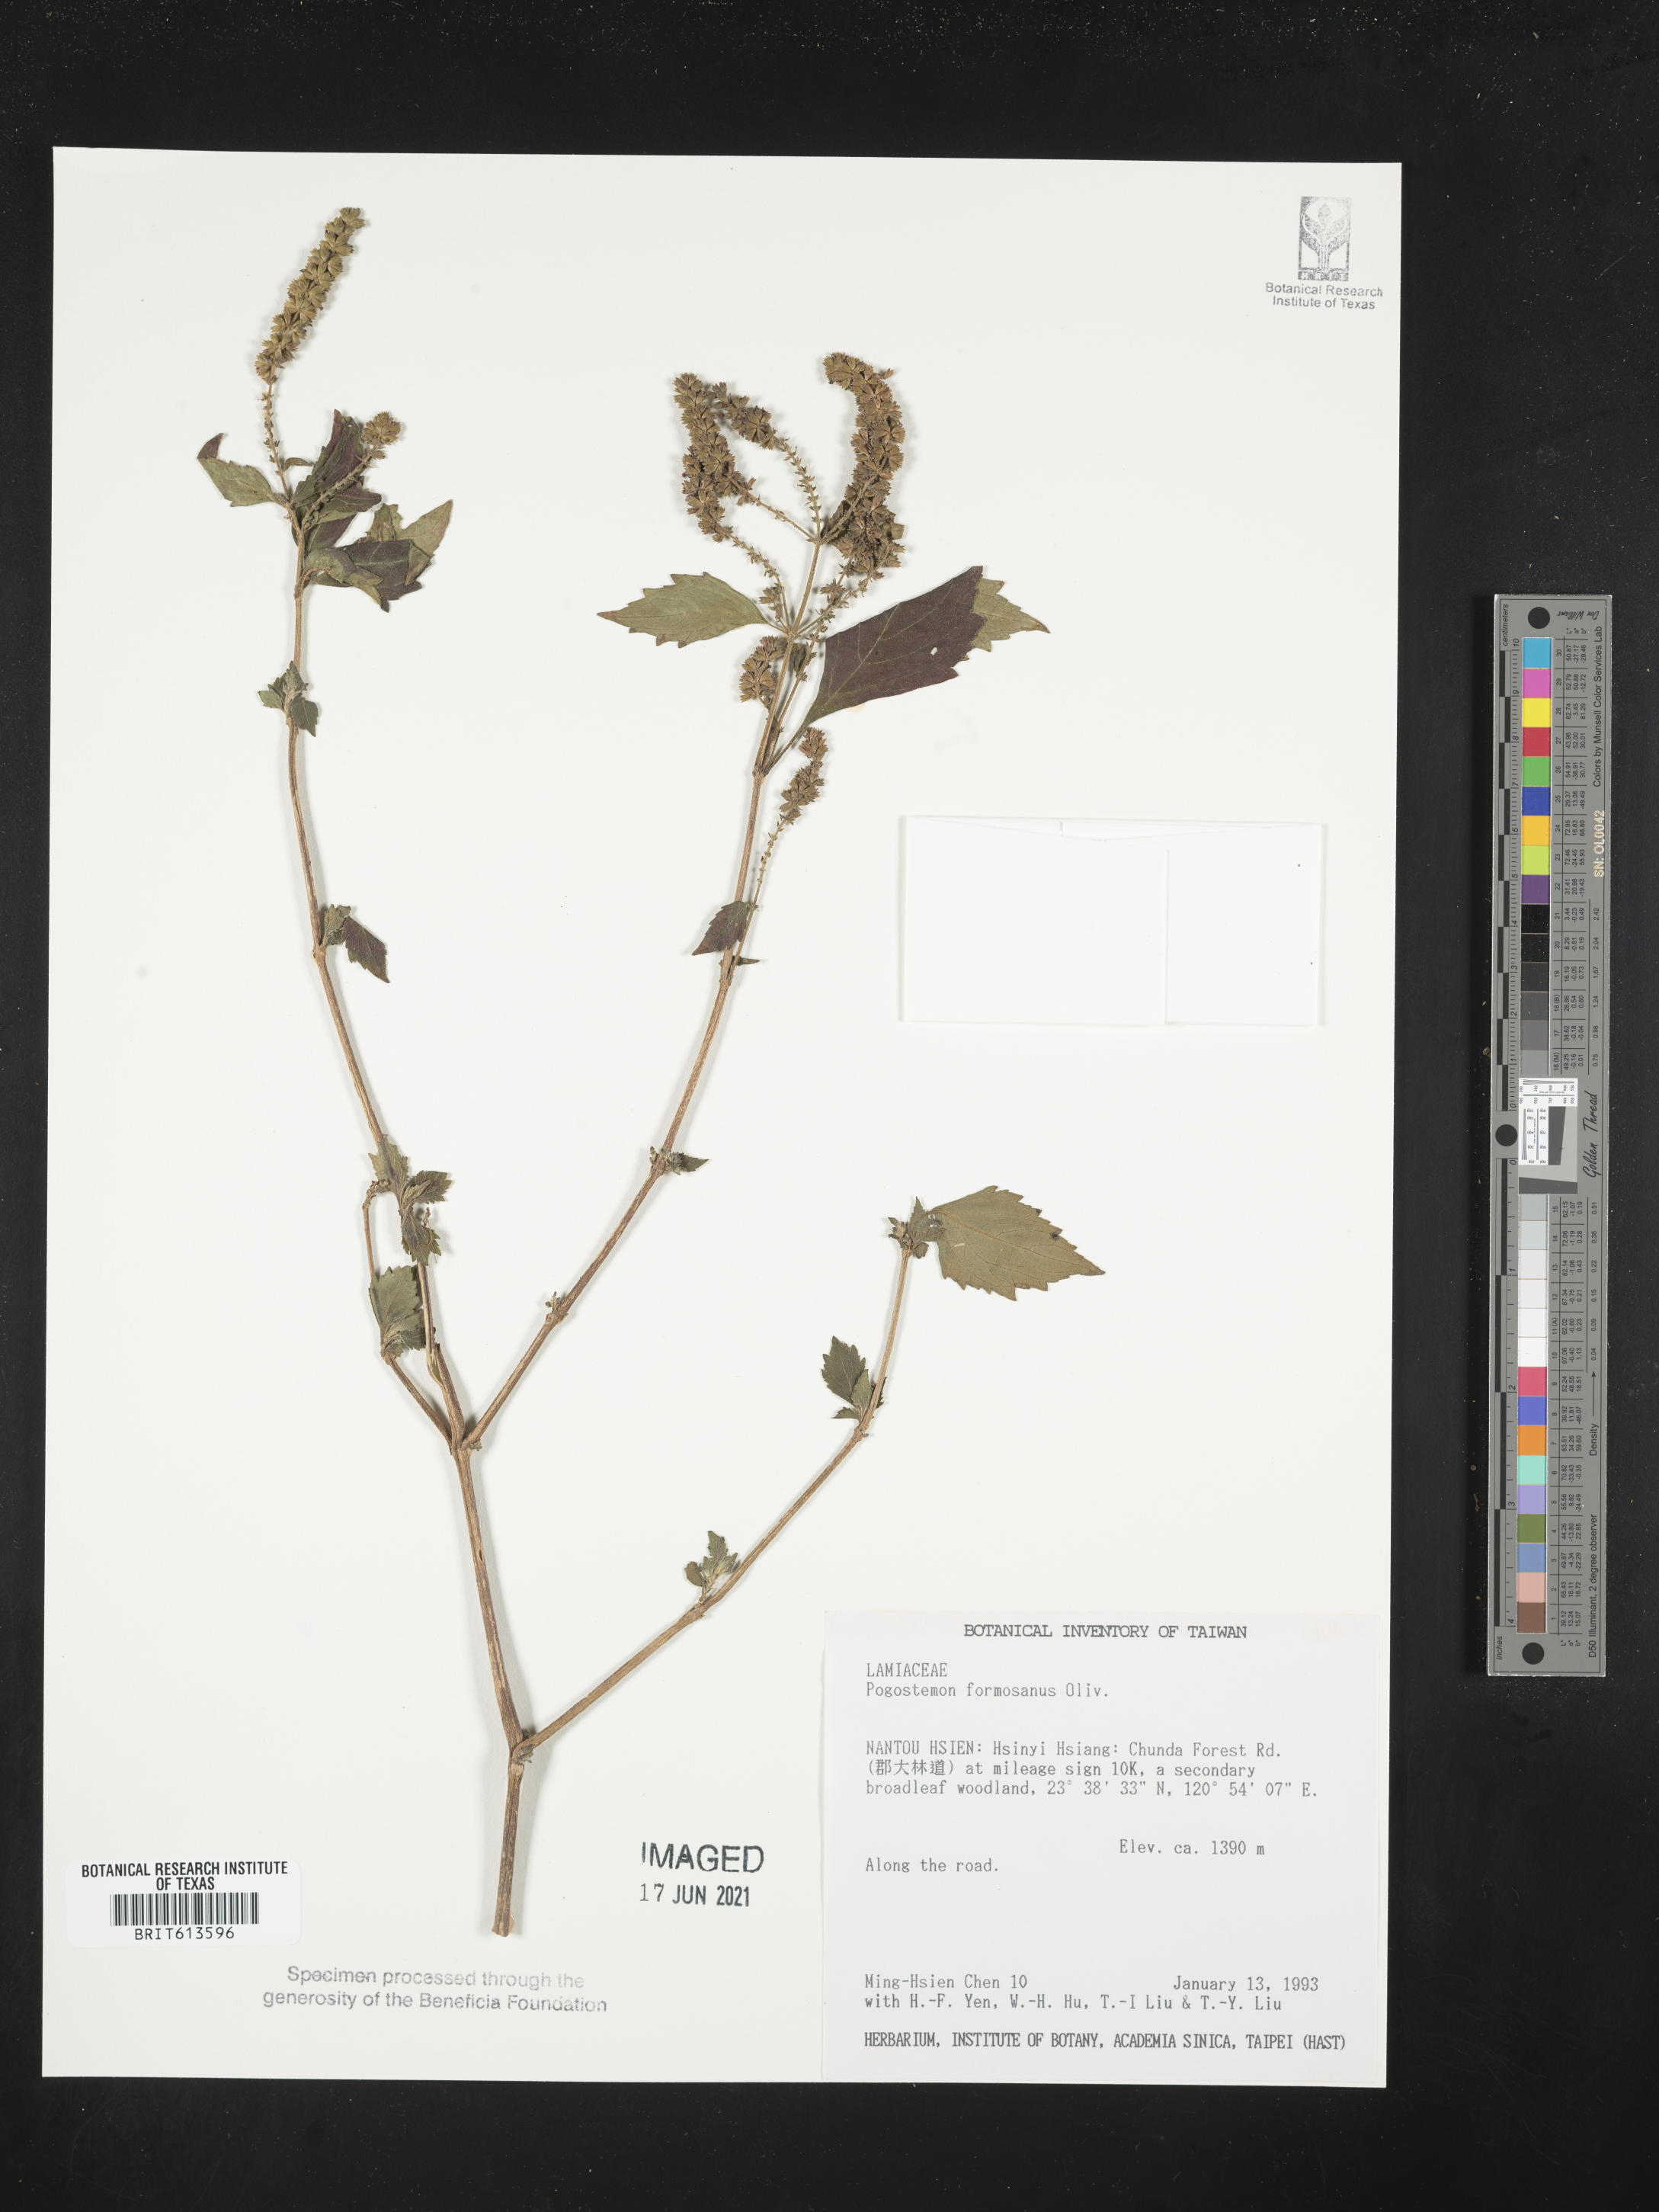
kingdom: Plantae
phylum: Tracheophyta
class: Magnoliopsida
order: Lamiales
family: Lamiaceae
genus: Pogostemon
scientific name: Pogostemon formosanus
